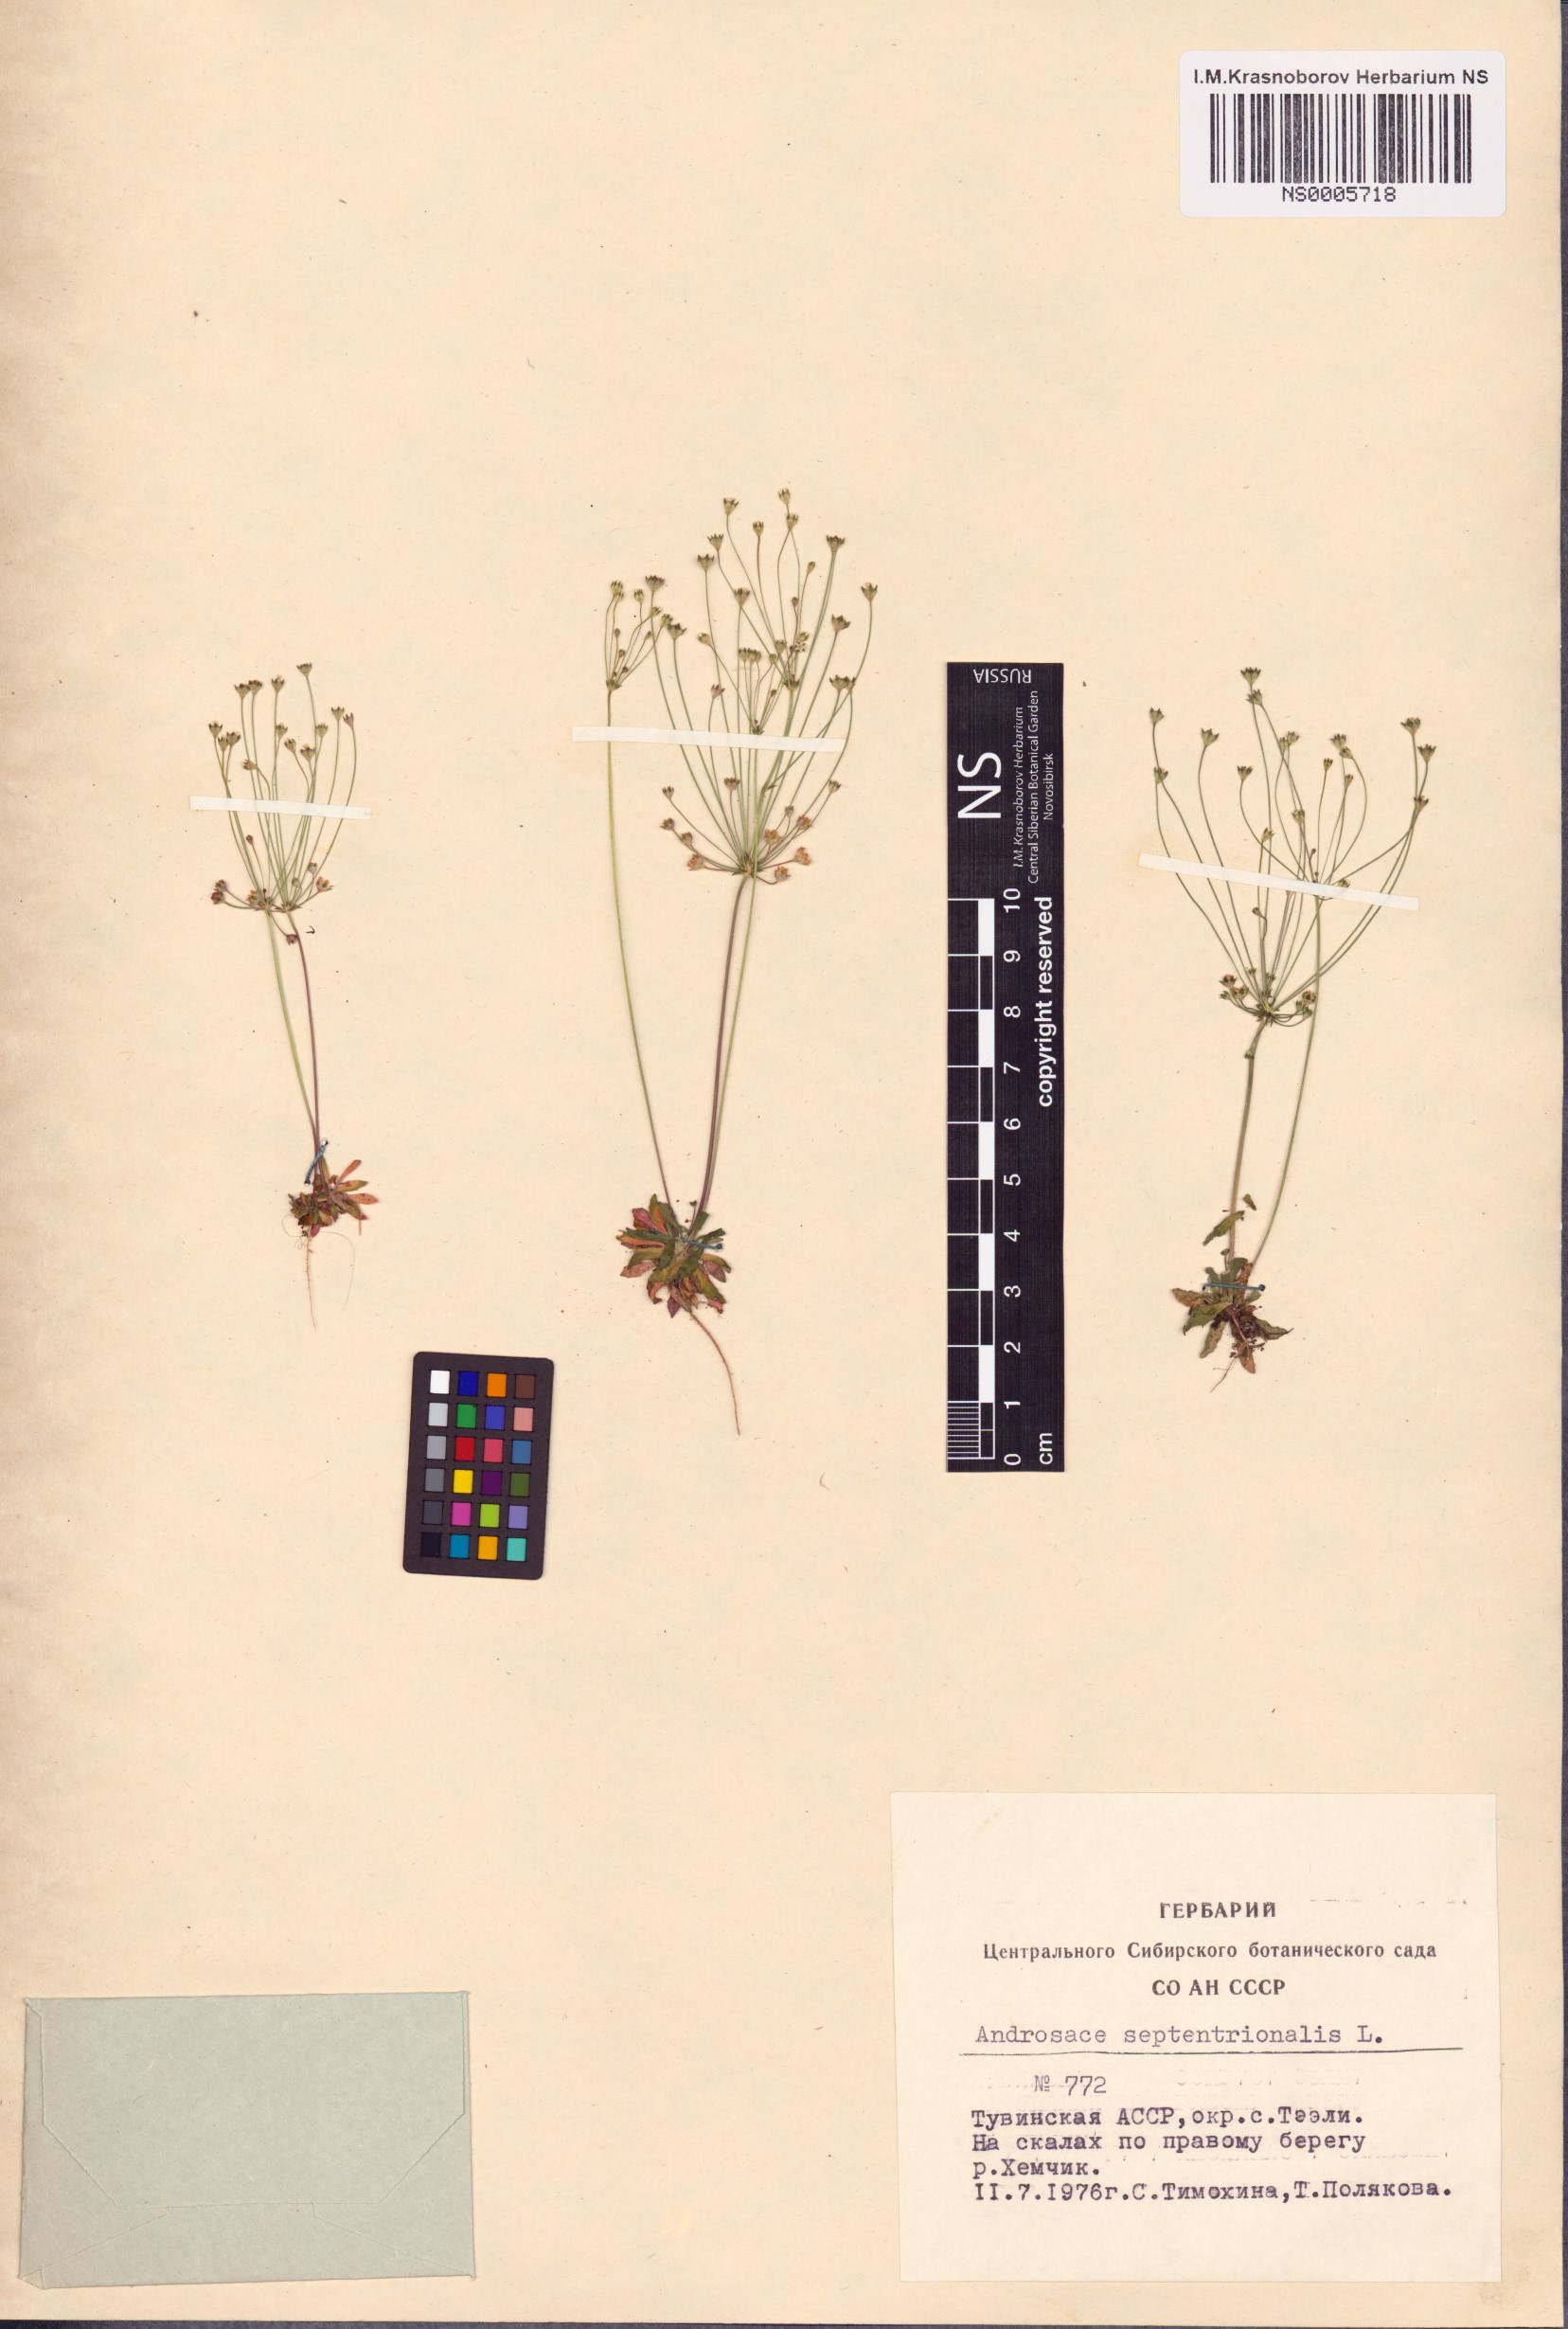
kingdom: Plantae
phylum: Tracheophyta
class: Magnoliopsida
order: Ericales
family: Primulaceae
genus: Androsace
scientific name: Androsace septentrionalis
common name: Hairy northern fairy-candelabra
